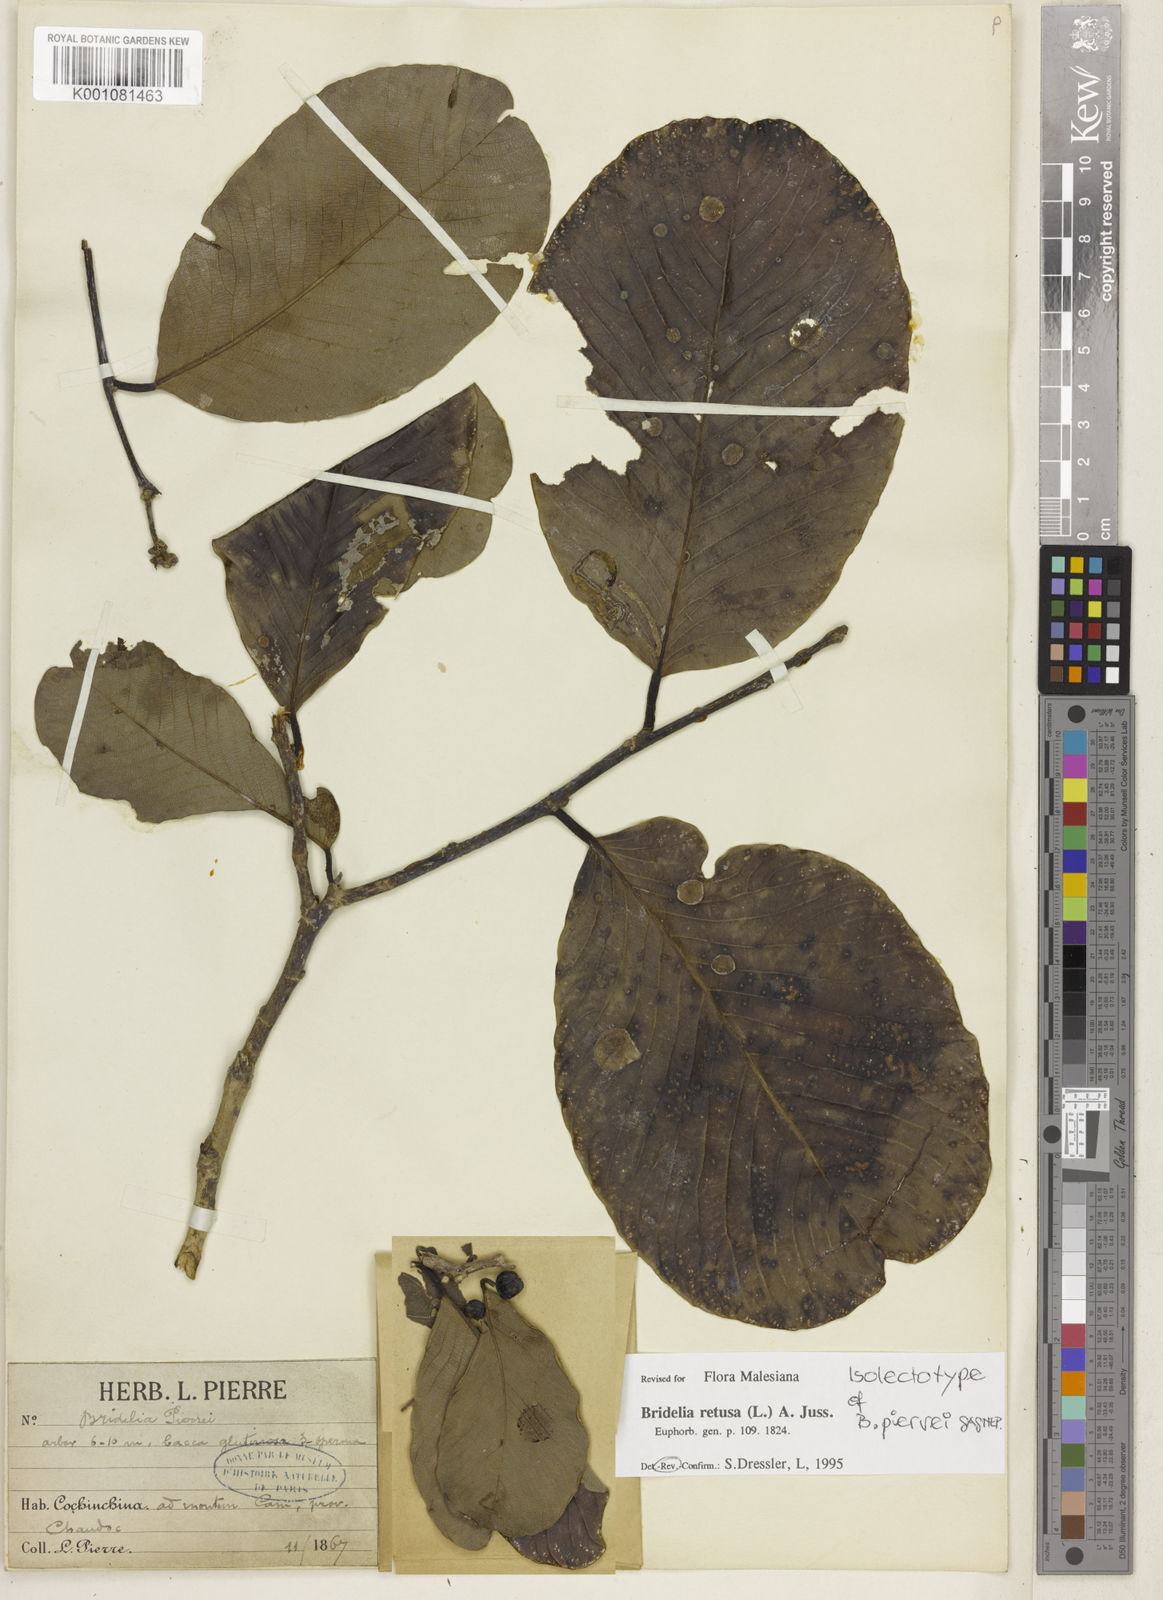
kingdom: Plantae
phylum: Tracheophyta
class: Magnoliopsida
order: Malpighiales
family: Phyllanthaceae
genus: Bridelia
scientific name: Bridelia retusa
